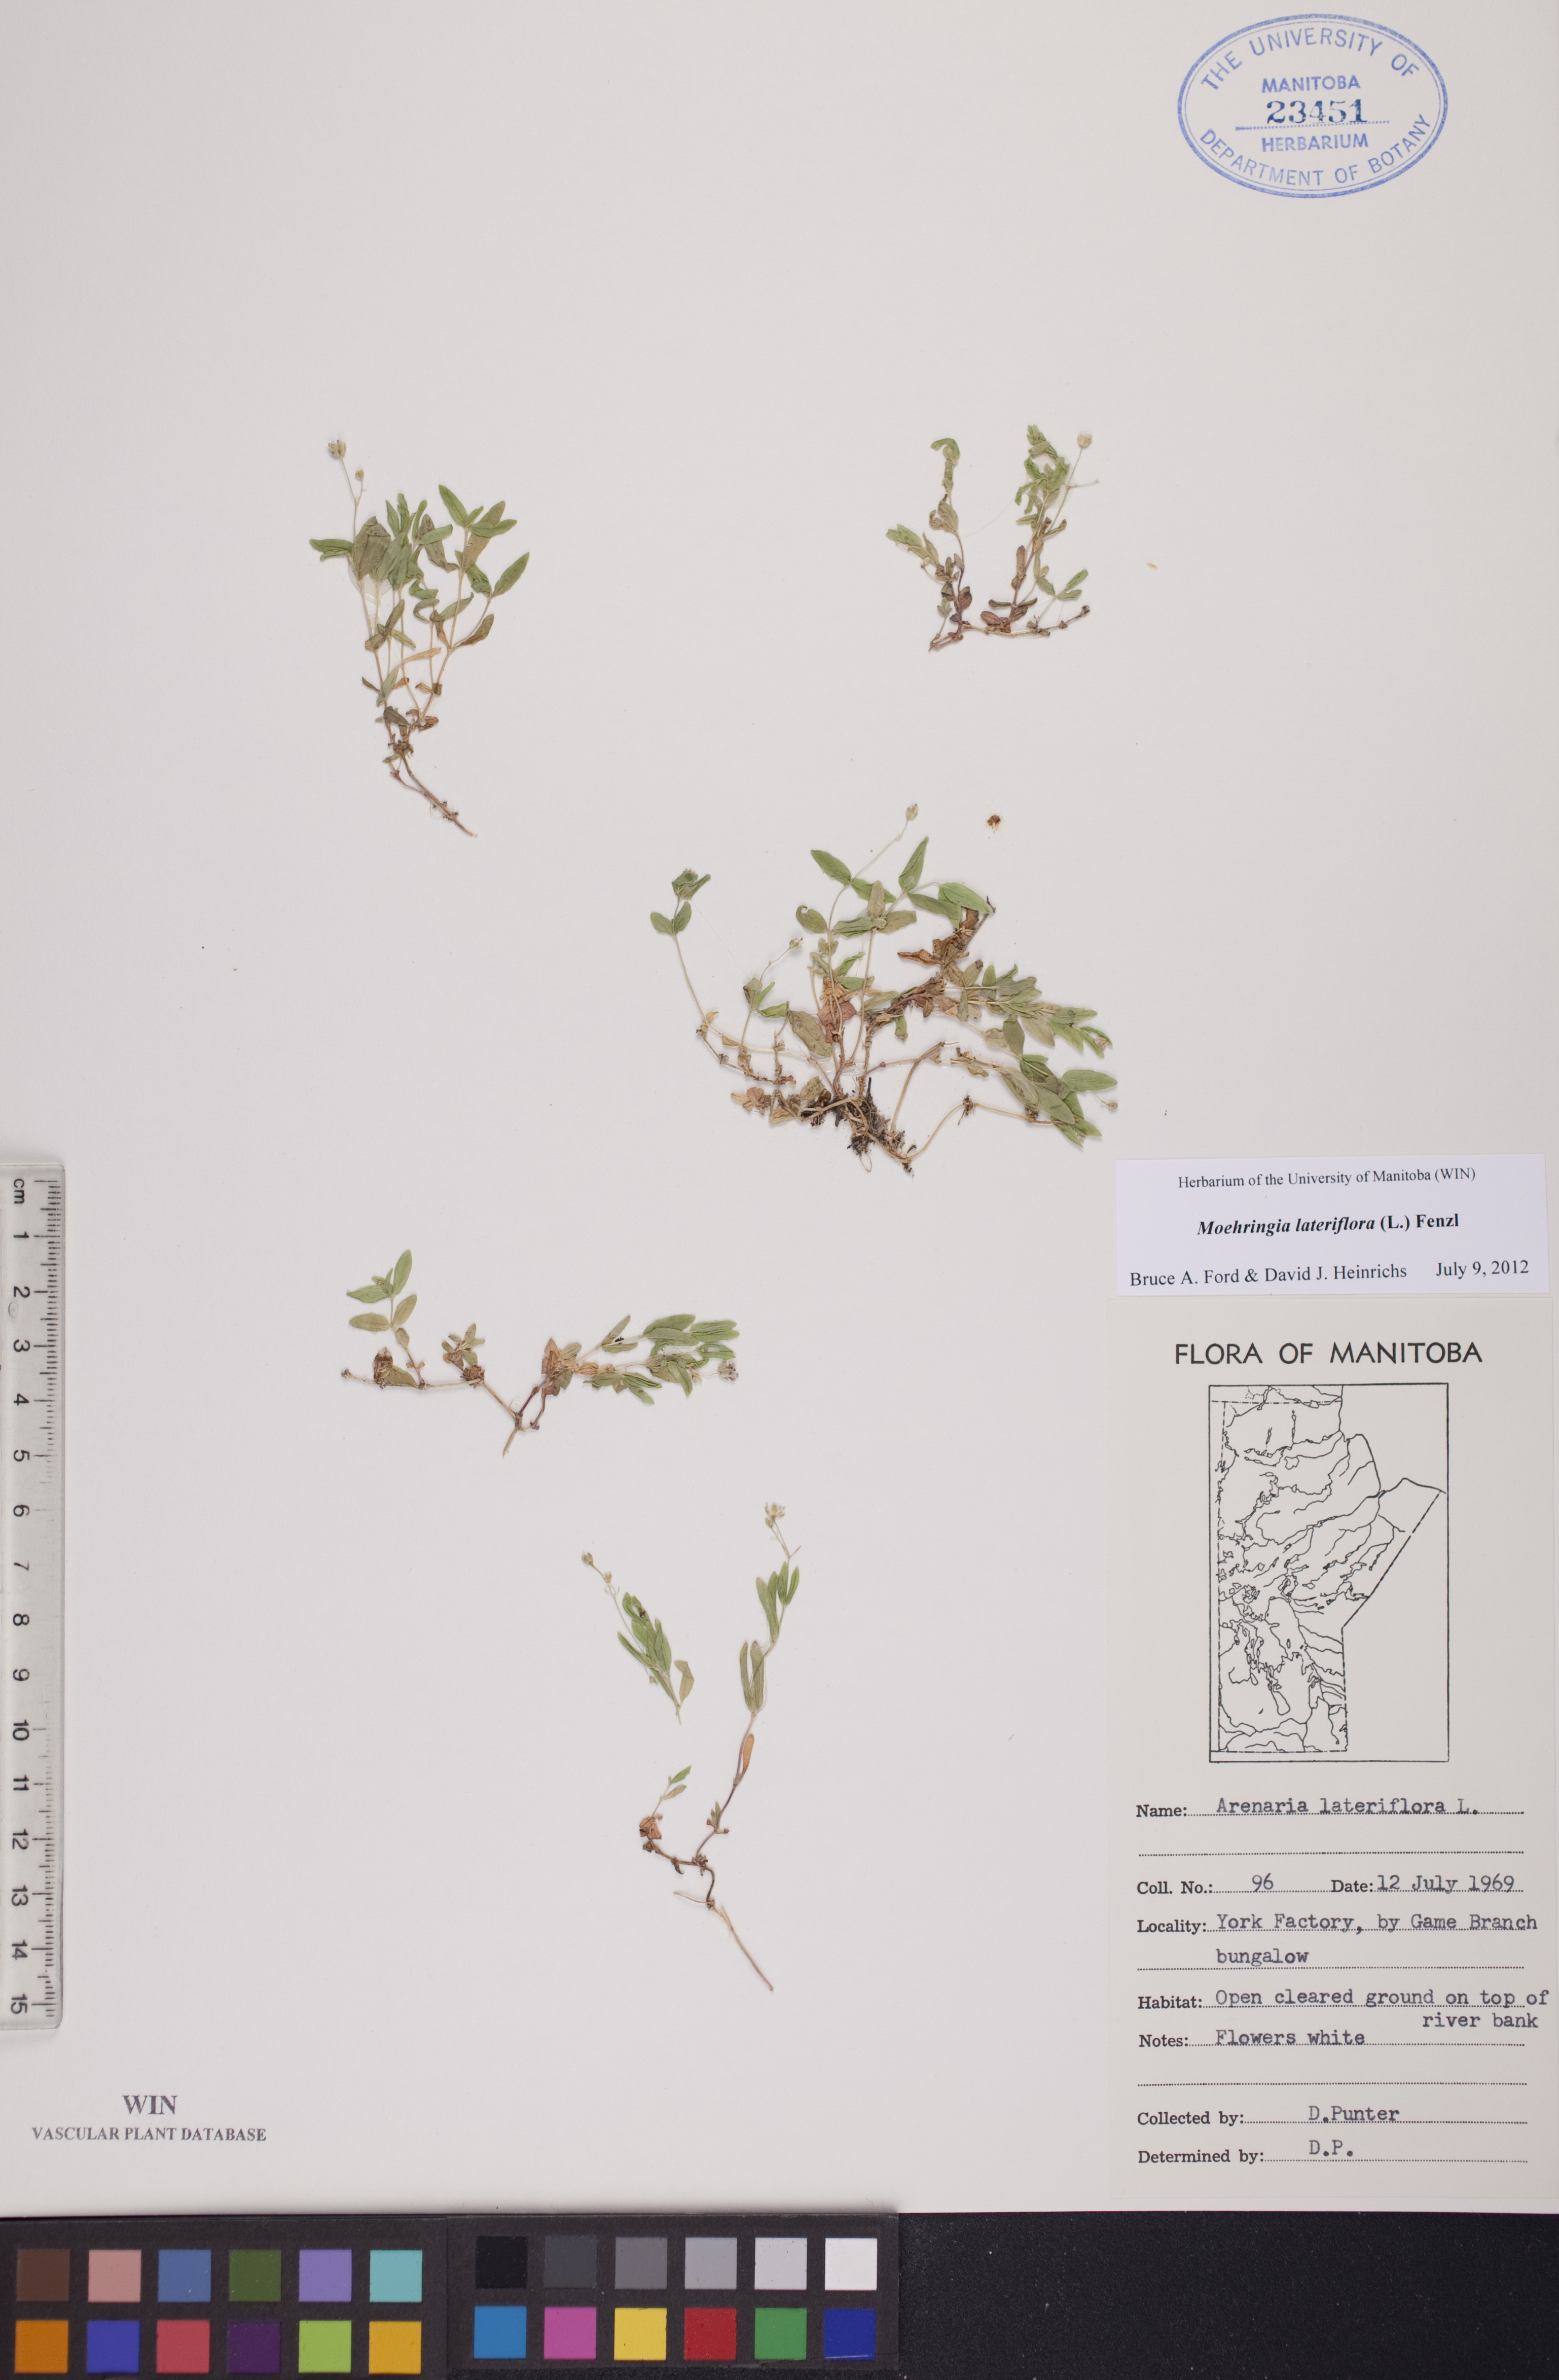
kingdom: Plantae
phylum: Tracheophyta
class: Magnoliopsida
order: Caryophyllales
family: Caryophyllaceae
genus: Moehringia
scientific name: Moehringia lateriflora
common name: Blunt-leaved sandwort
